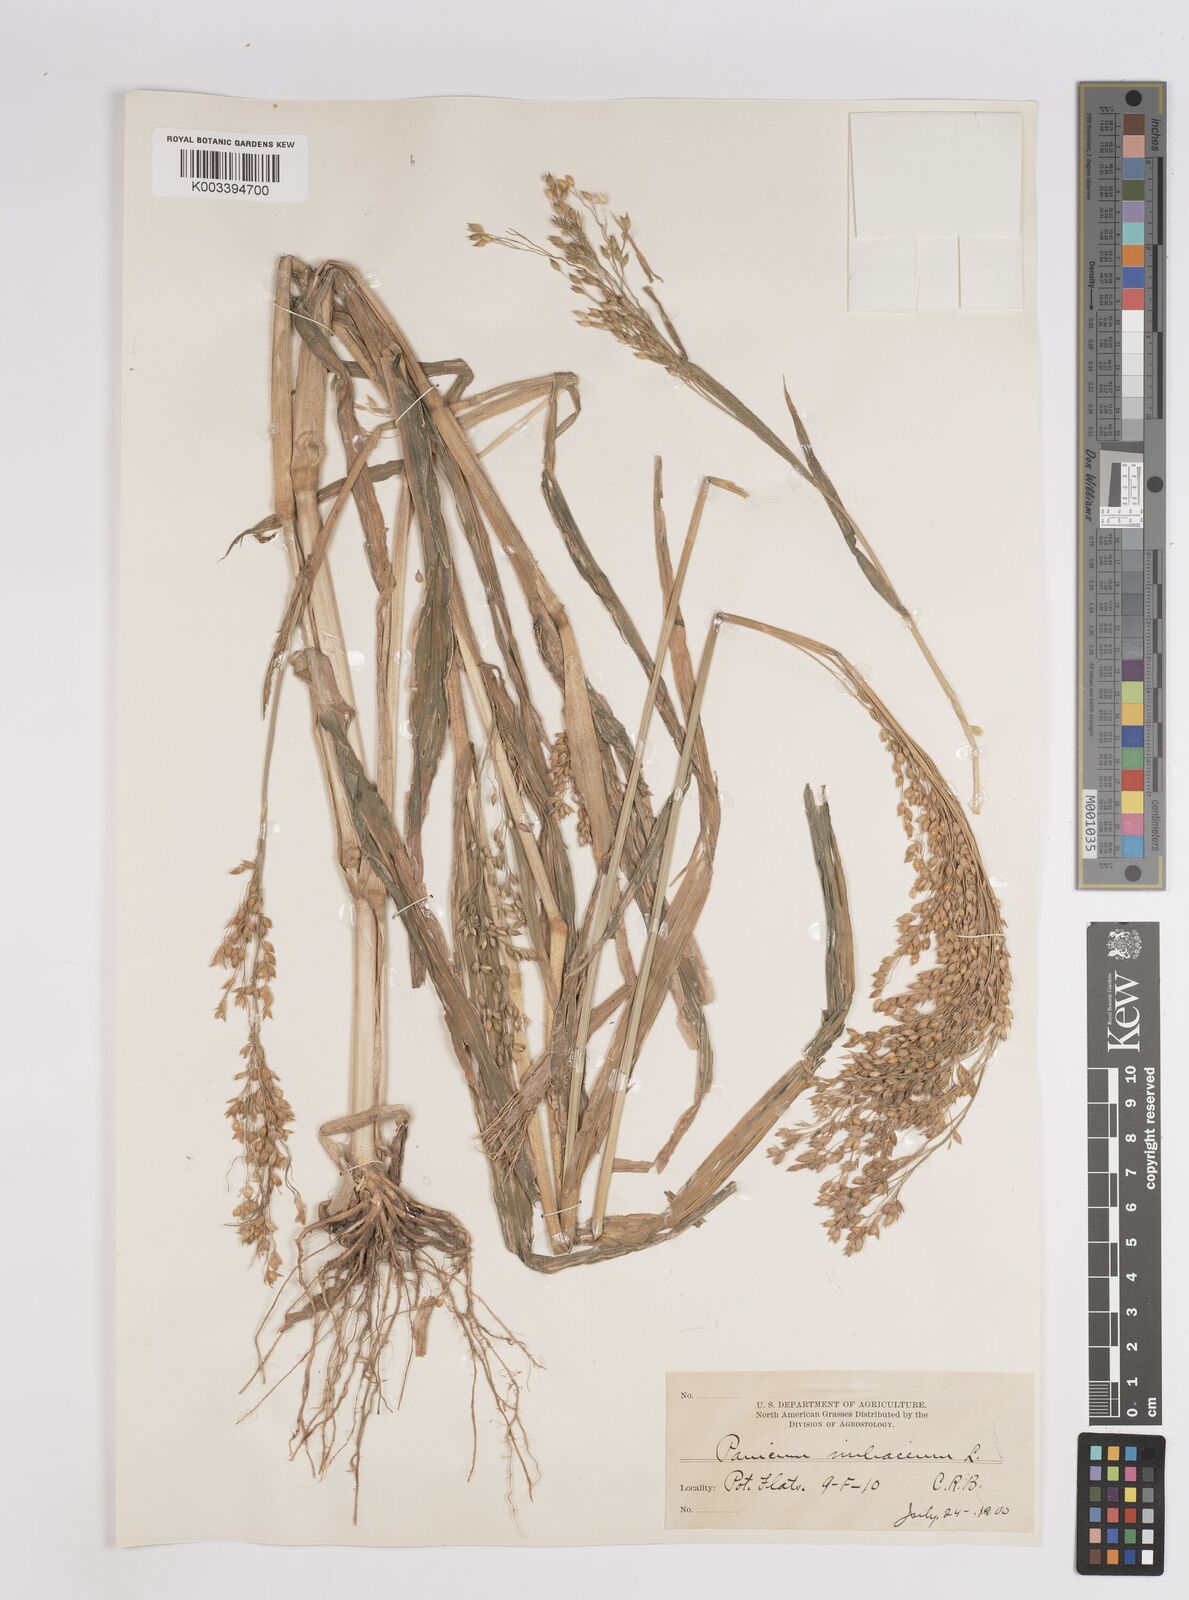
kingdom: Plantae
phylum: Tracheophyta
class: Liliopsida
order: Poales
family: Poaceae
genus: Panicum
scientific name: Panicum miliaceum
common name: Common millet
